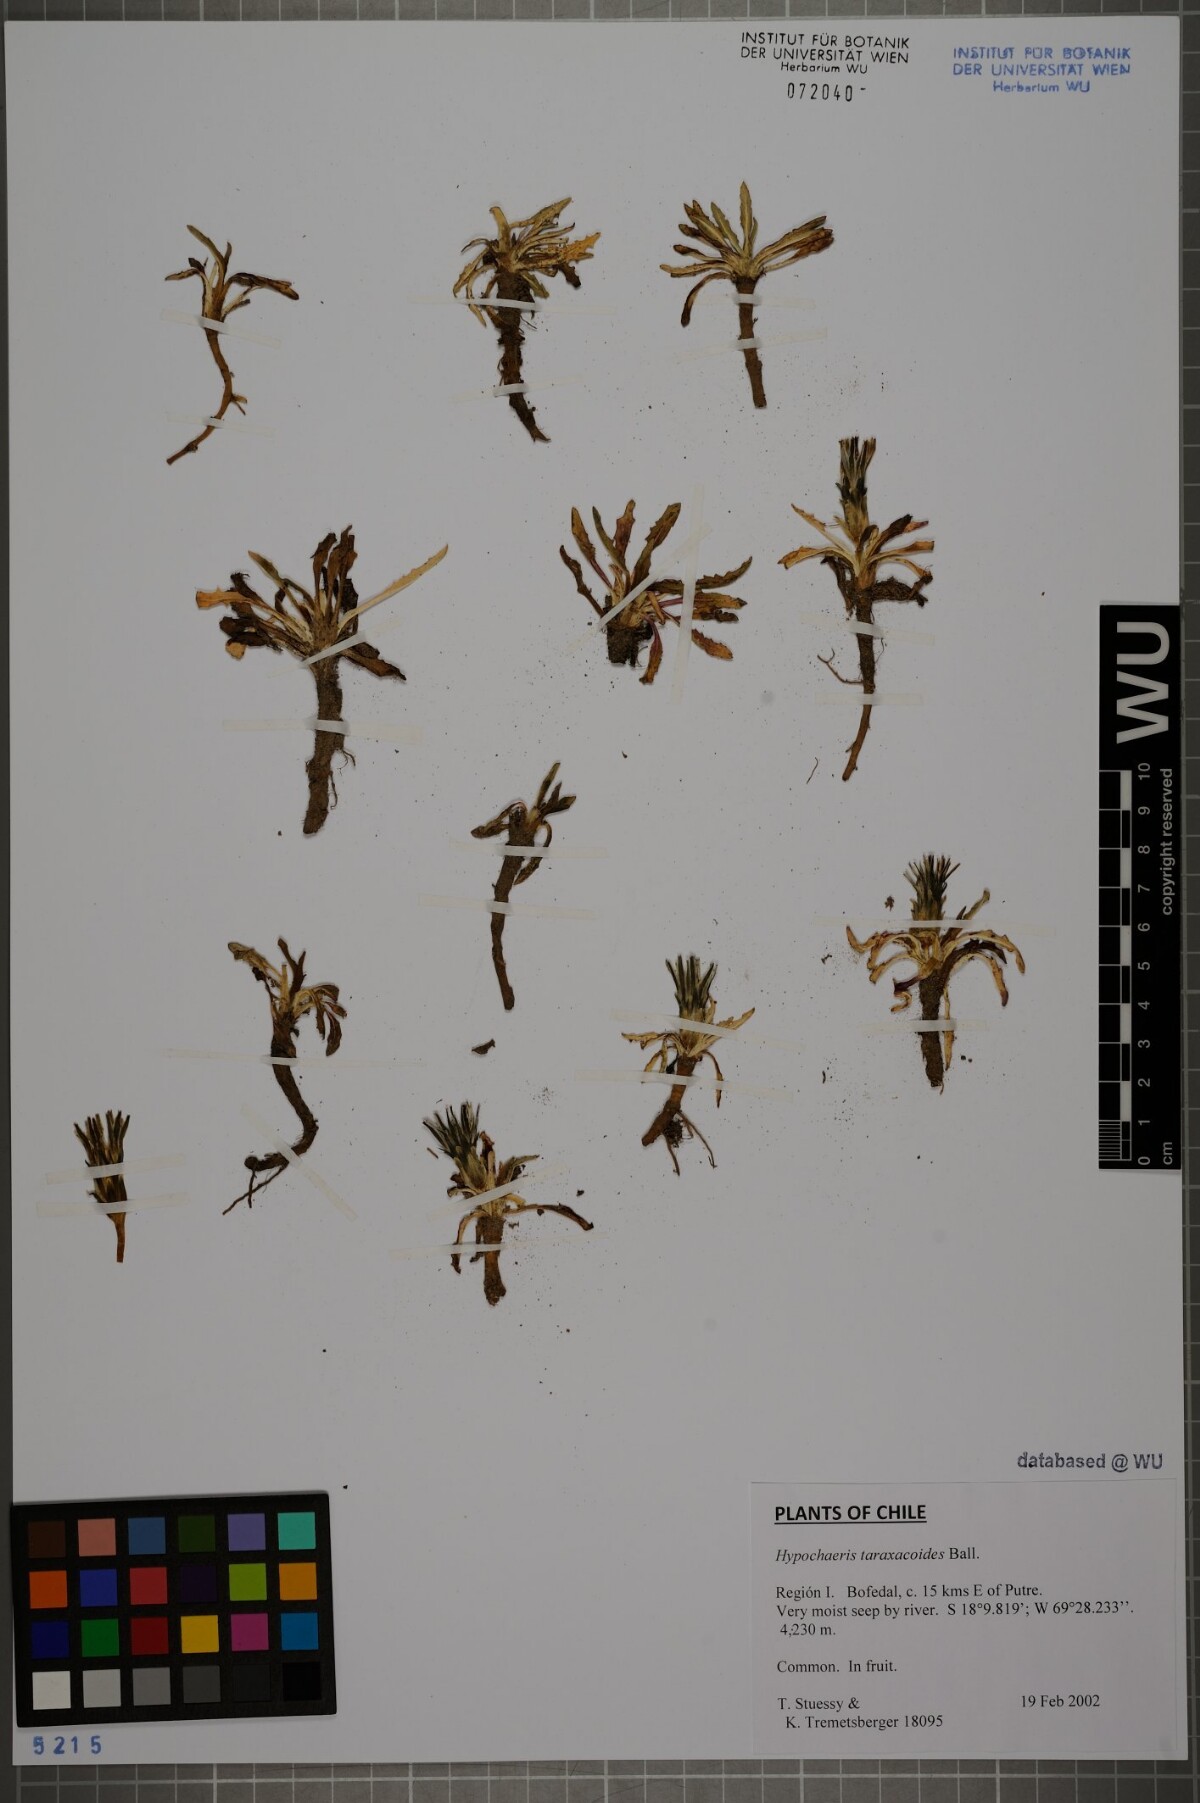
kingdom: Plantae
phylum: Tracheophyta
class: Magnoliopsida
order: Asterales
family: Asteraceae
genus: Hypochaeris
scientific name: Hypochaeris taraxacoides
